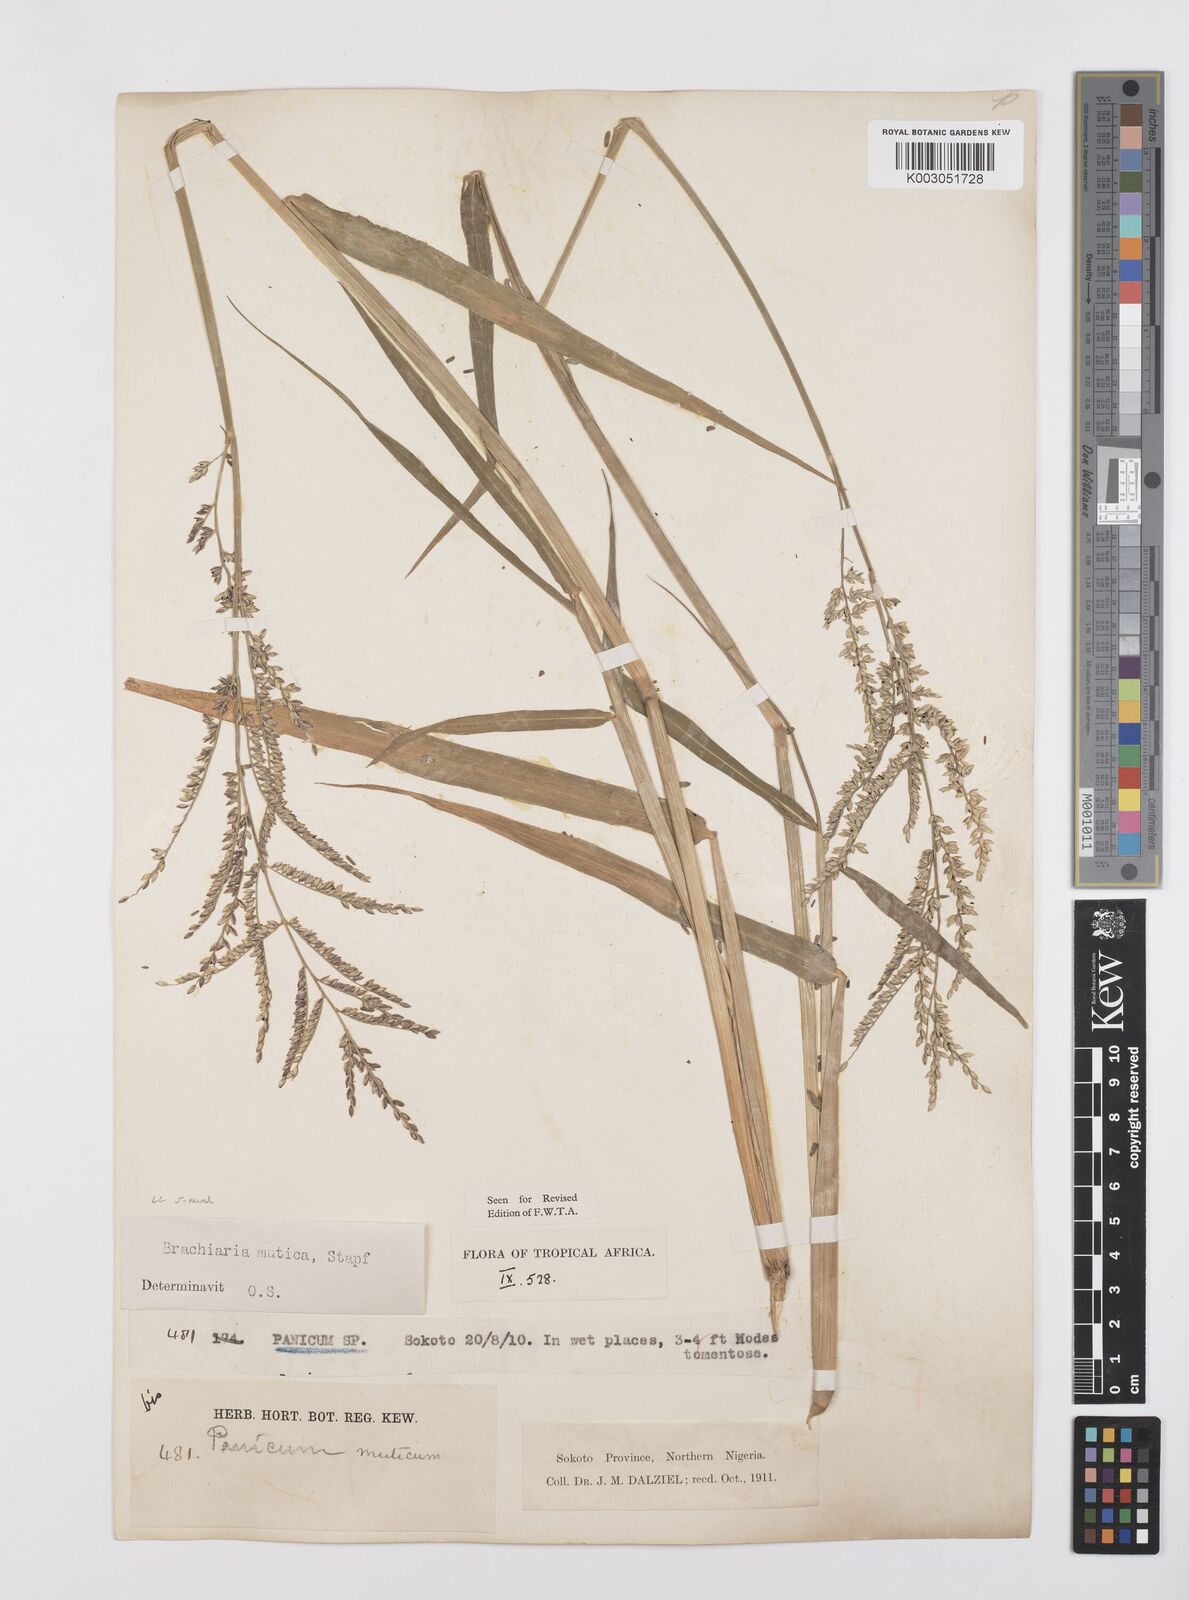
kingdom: Plantae
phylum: Tracheophyta
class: Liliopsida
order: Poales
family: Poaceae
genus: Urochloa
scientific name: Urochloa mutica
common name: Para grass
